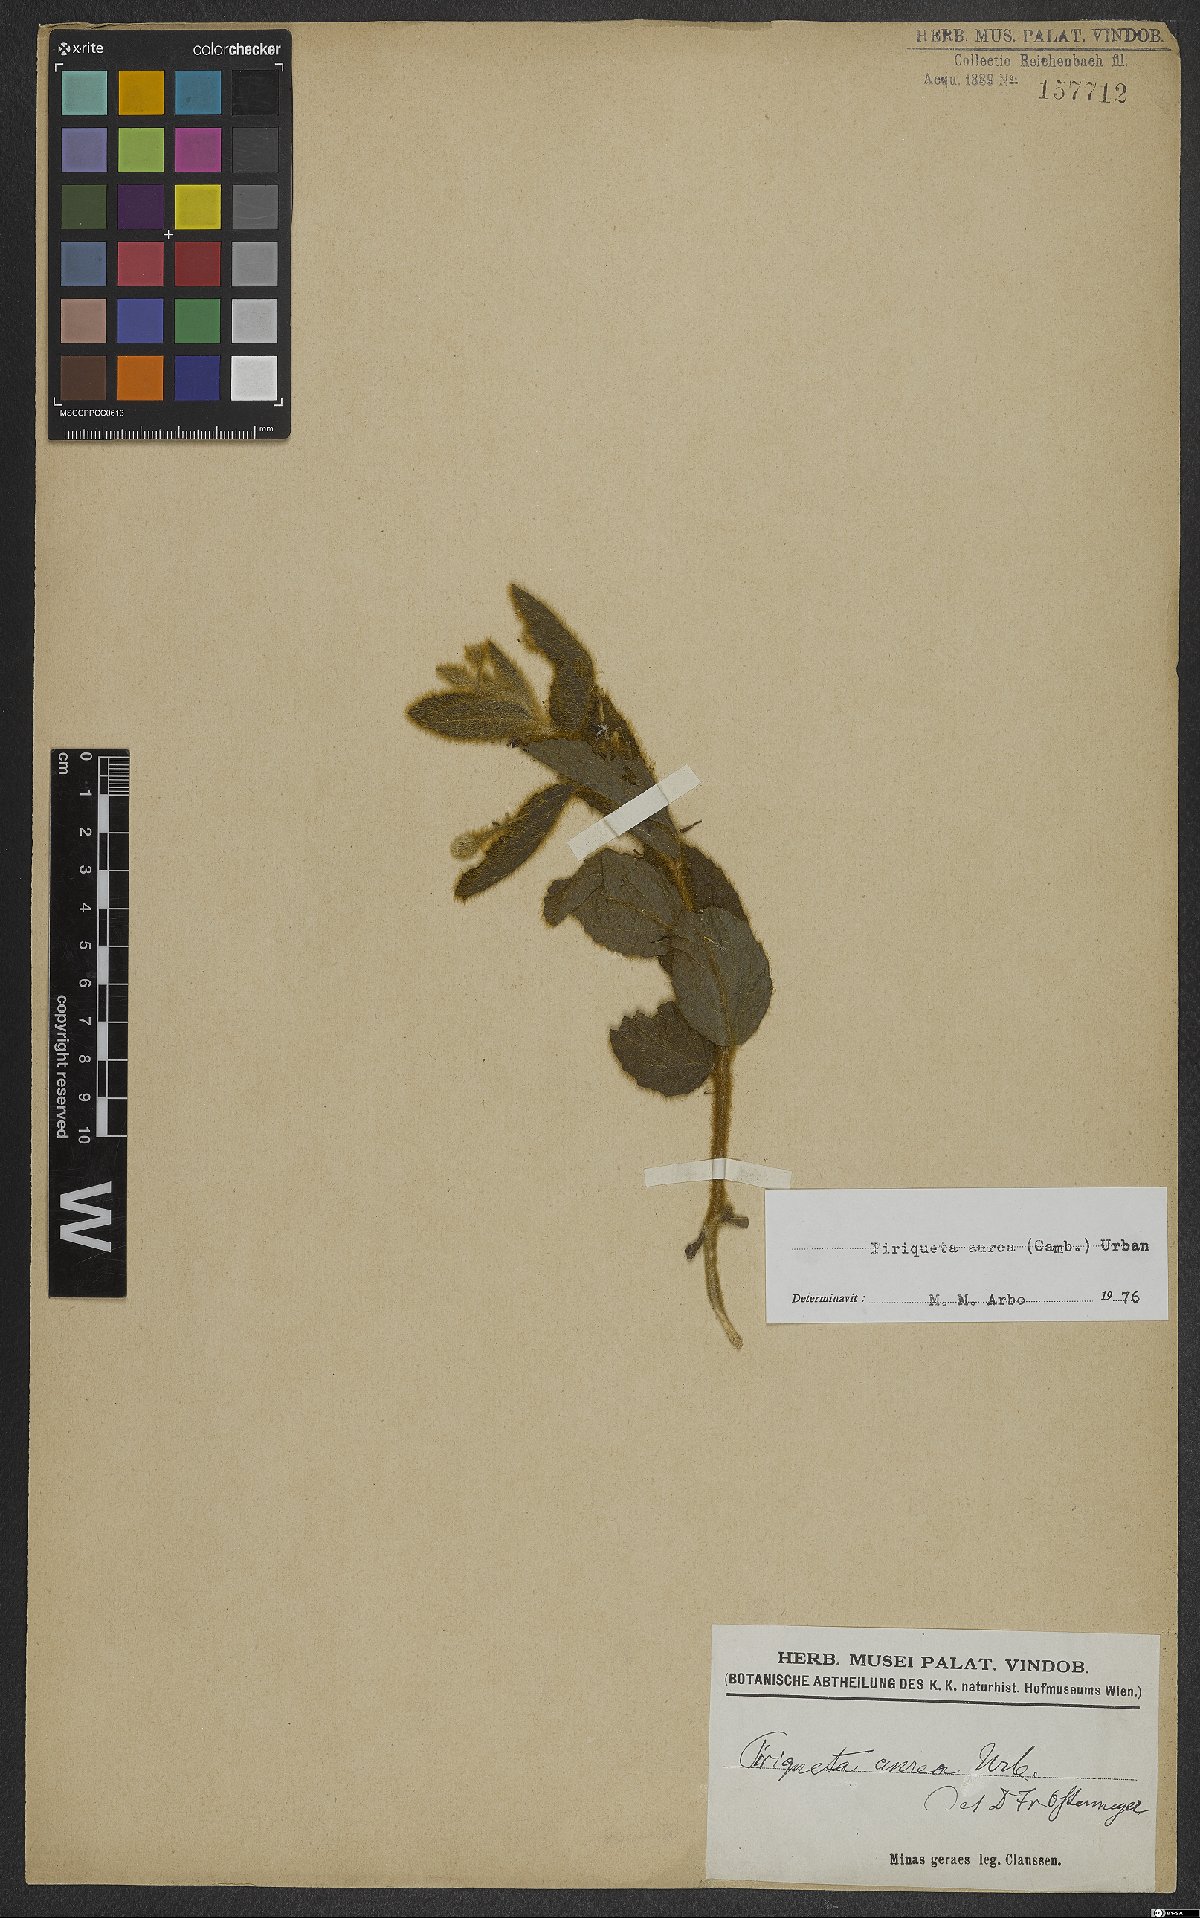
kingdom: Plantae
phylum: Tracheophyta
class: Magnoliopsida
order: Malpighiales
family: Turneraceae
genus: Piriqueta
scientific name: Piriqueta aurea
